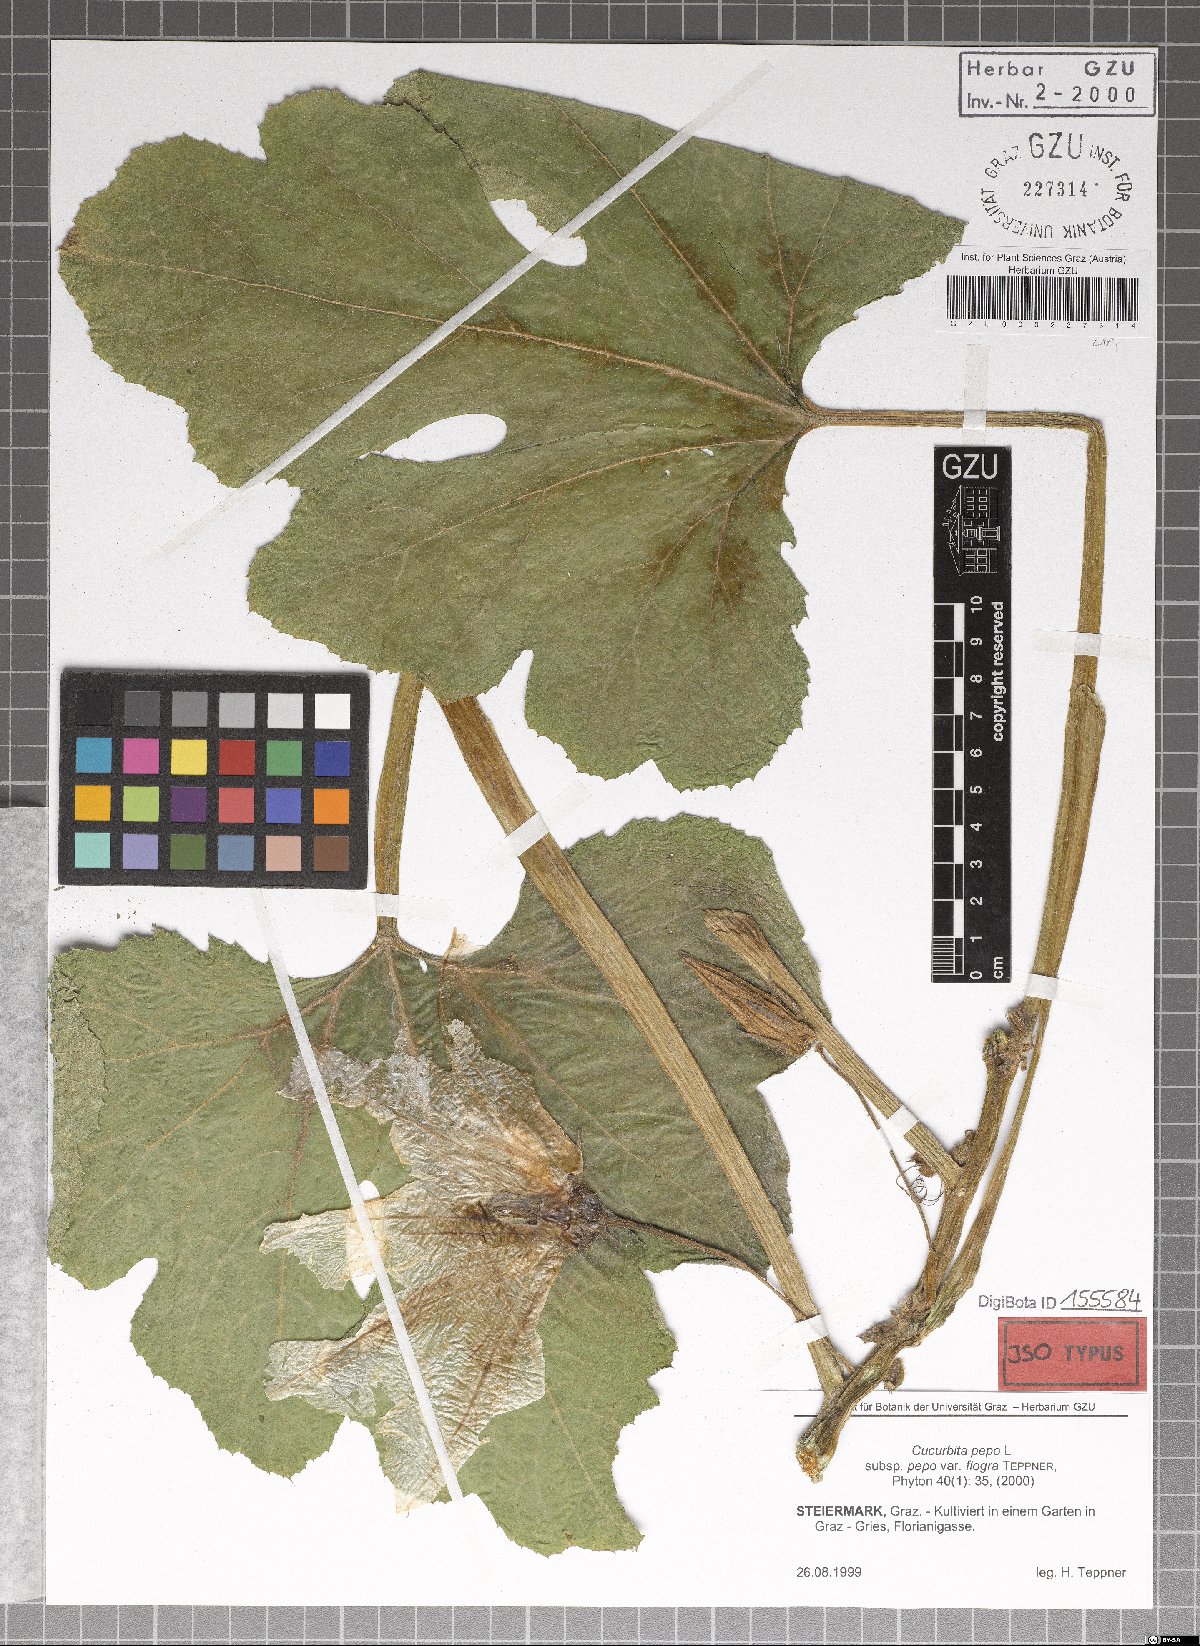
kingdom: Plantae
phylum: Tracheophyta
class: Magnoliopsida
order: Cucurbitales
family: Cucurbitaceae
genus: Cucurbita
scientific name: Cucurbita pepo
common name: Marrow
